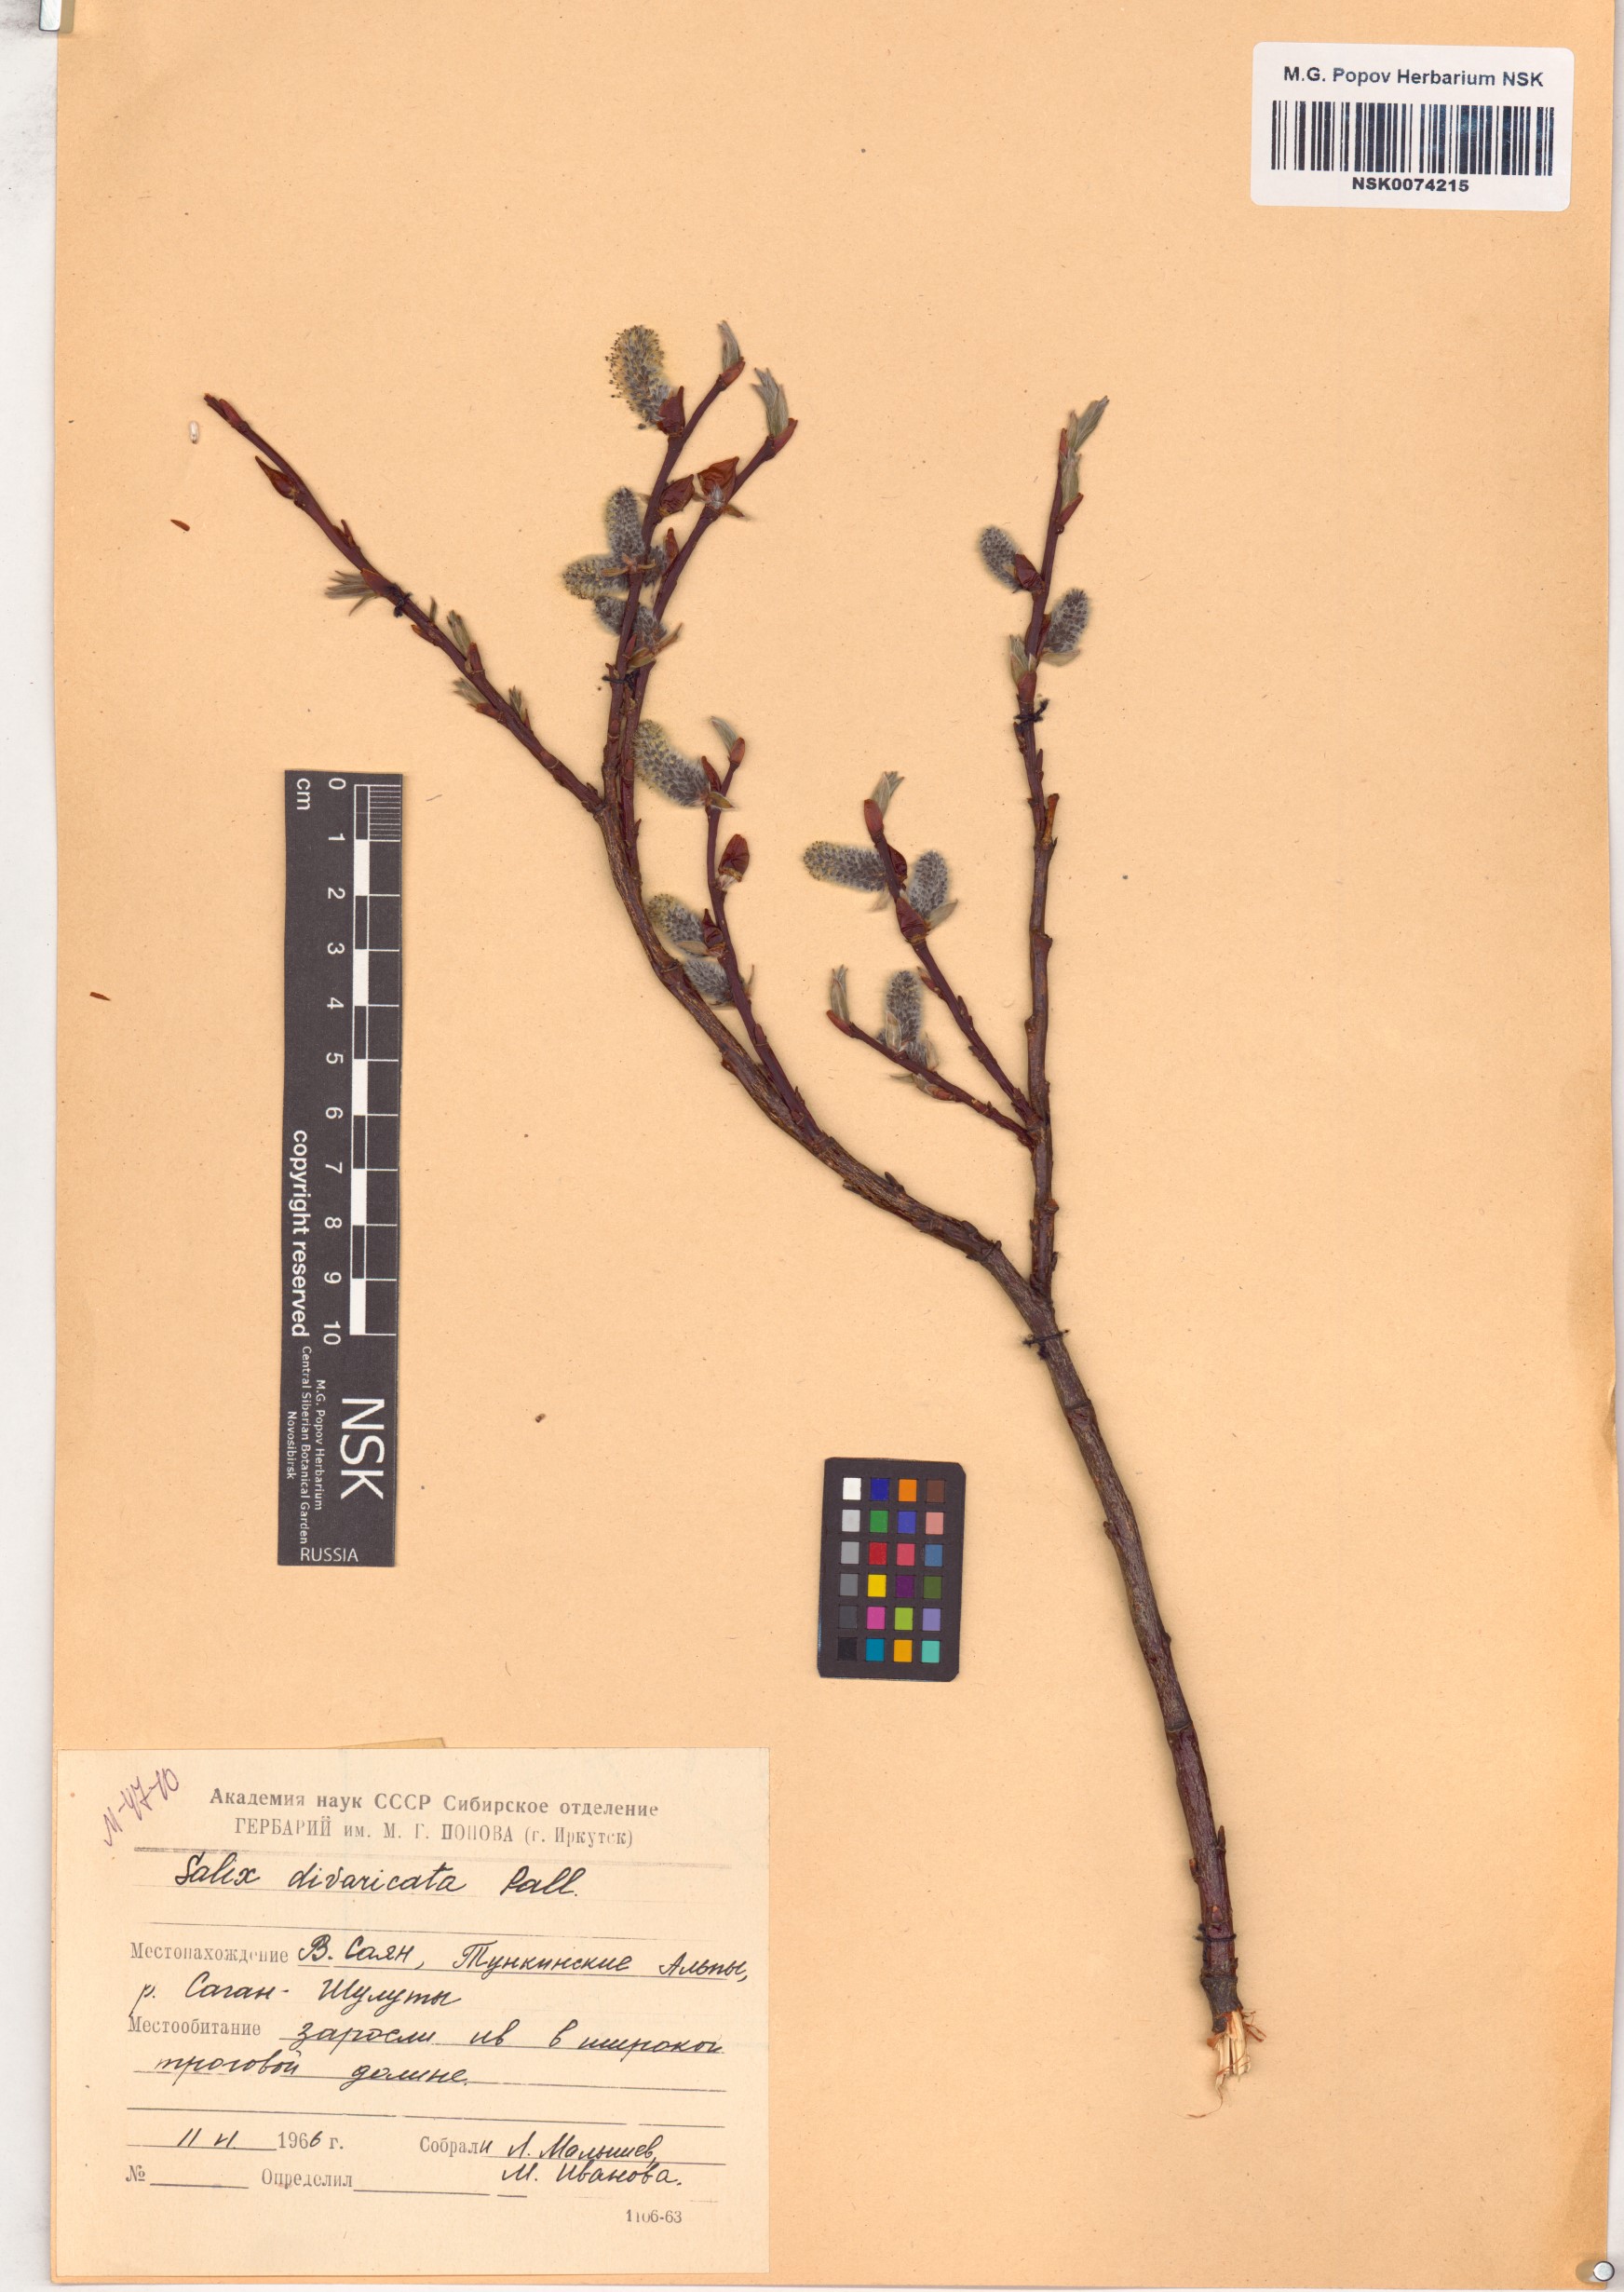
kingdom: Plantae
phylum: Tracheophyta
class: Magnoliopsida
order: Malpighiales
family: Salicaceae
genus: Salix
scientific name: Salix divaricata
